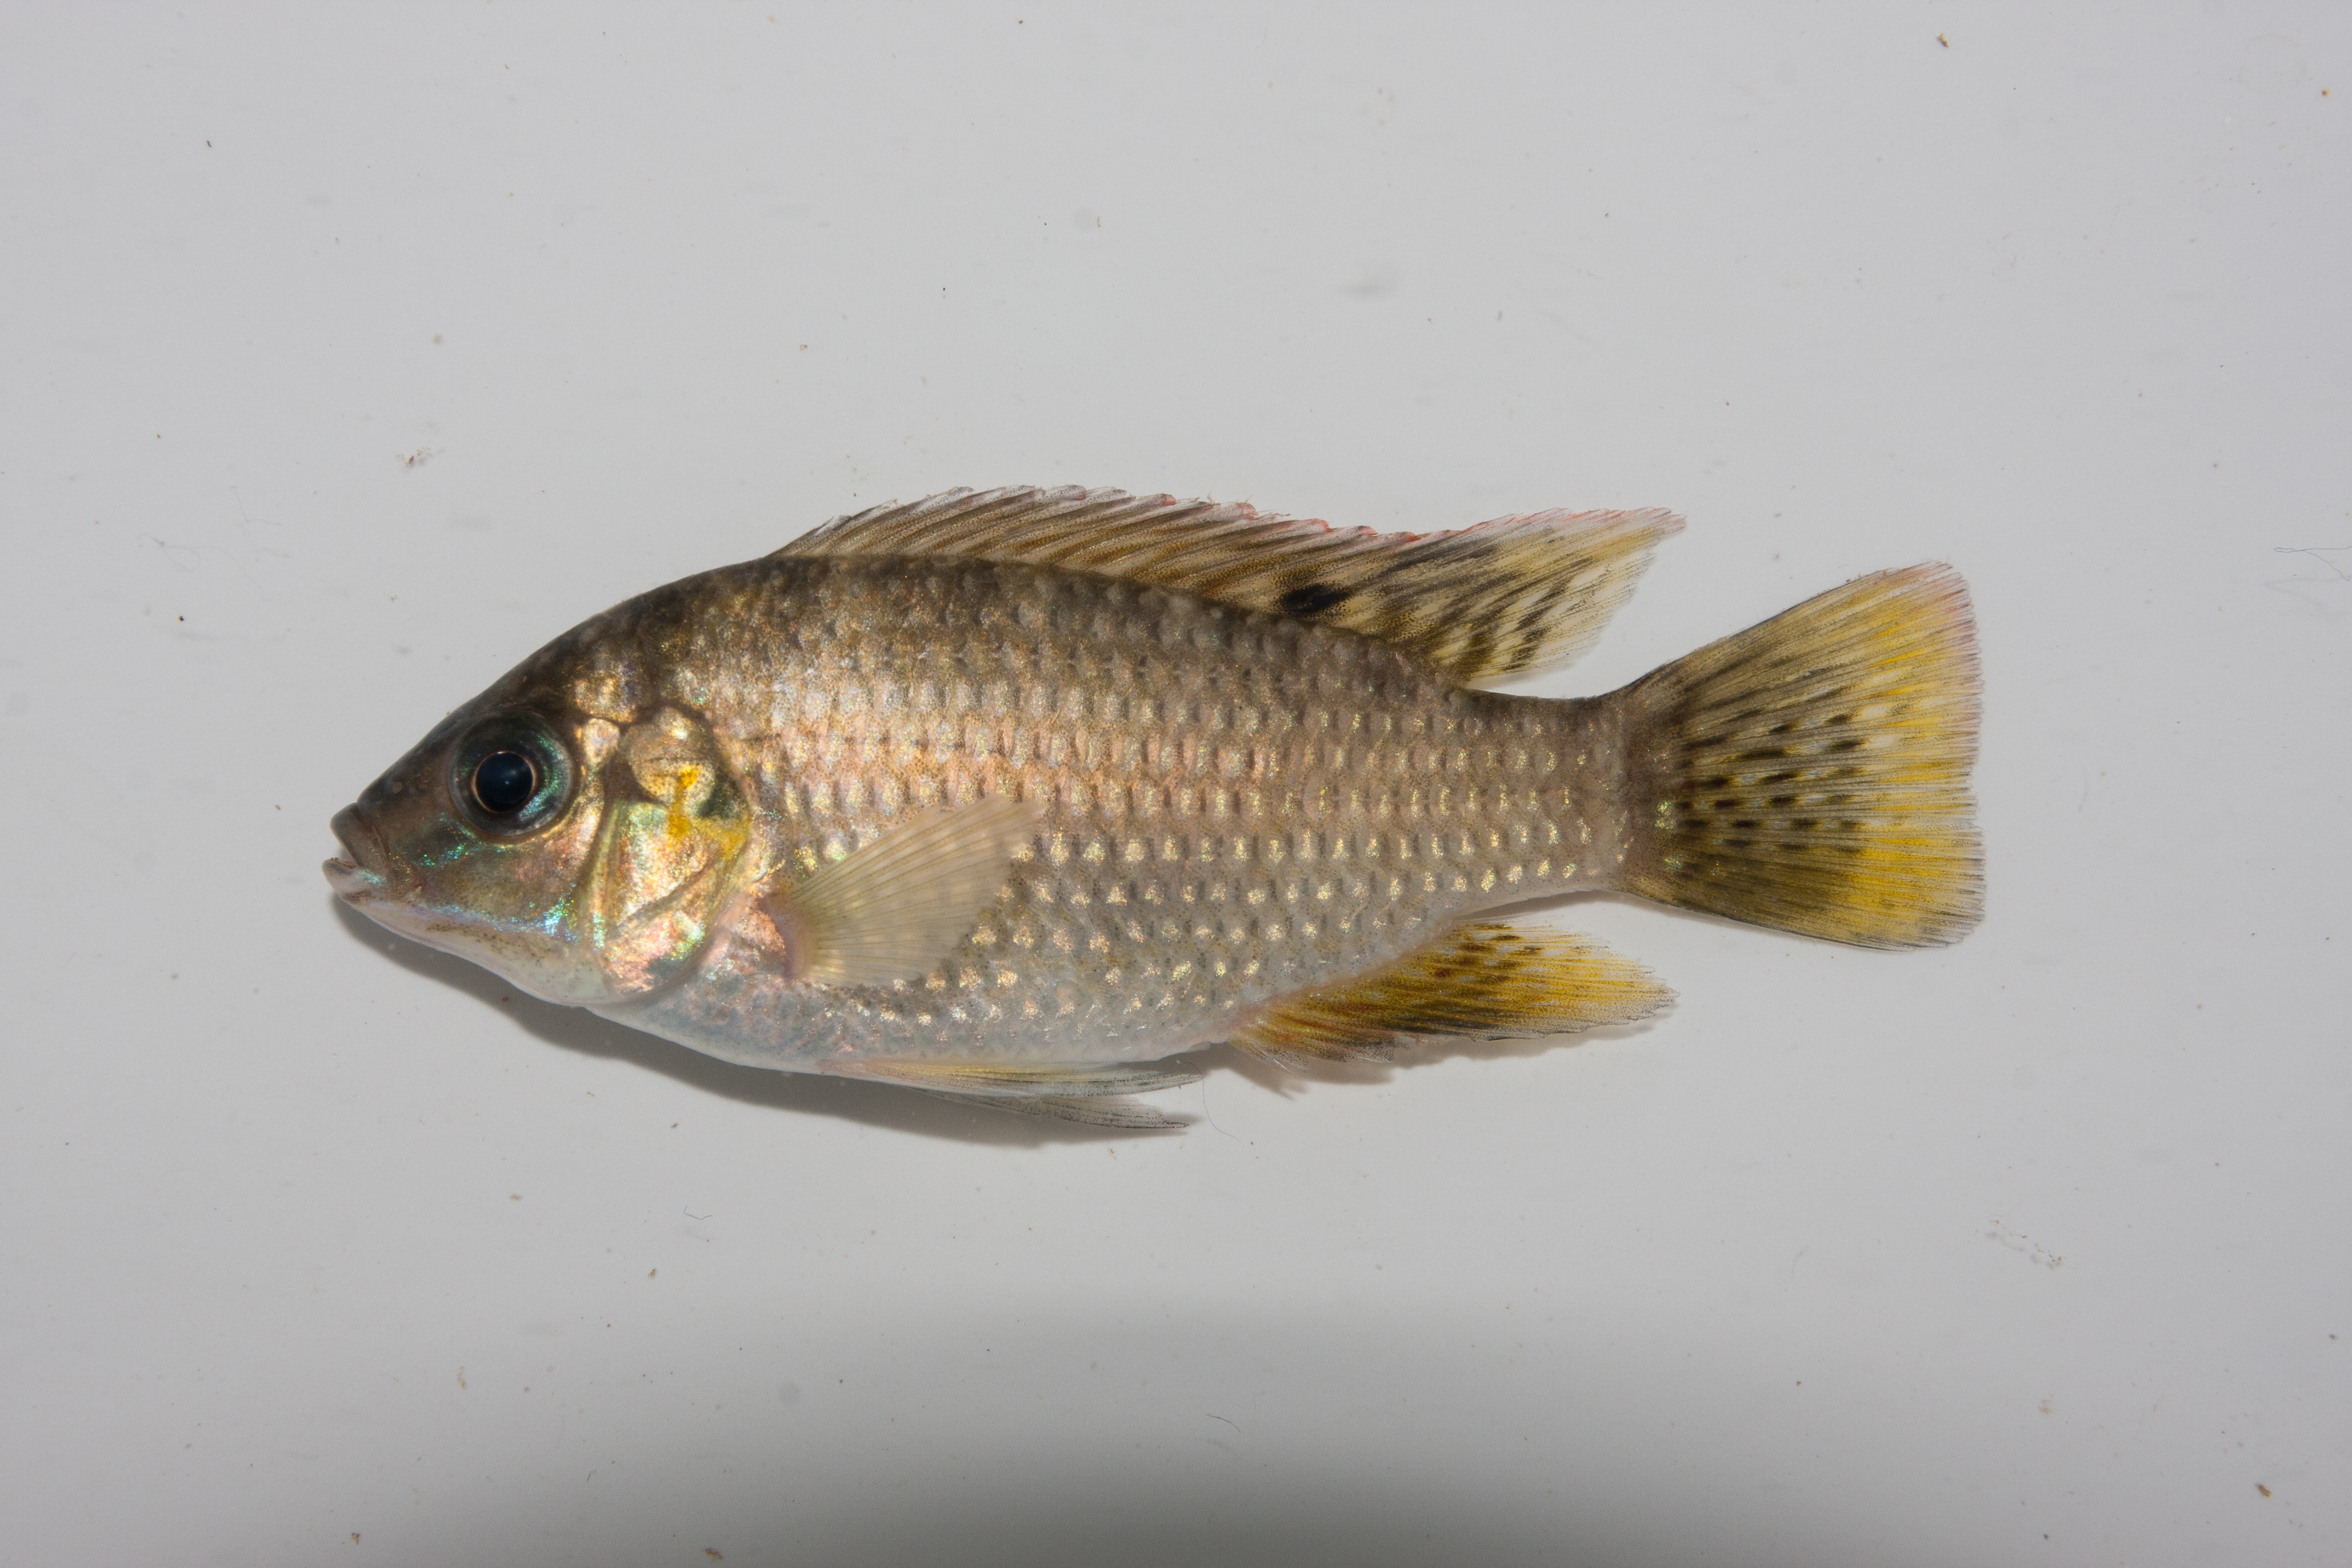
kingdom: Animalia
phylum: Chordata
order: Perciformes
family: Cichlidae
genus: Tilapia
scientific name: Tilapia sparrmanii
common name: Banded tilapia
